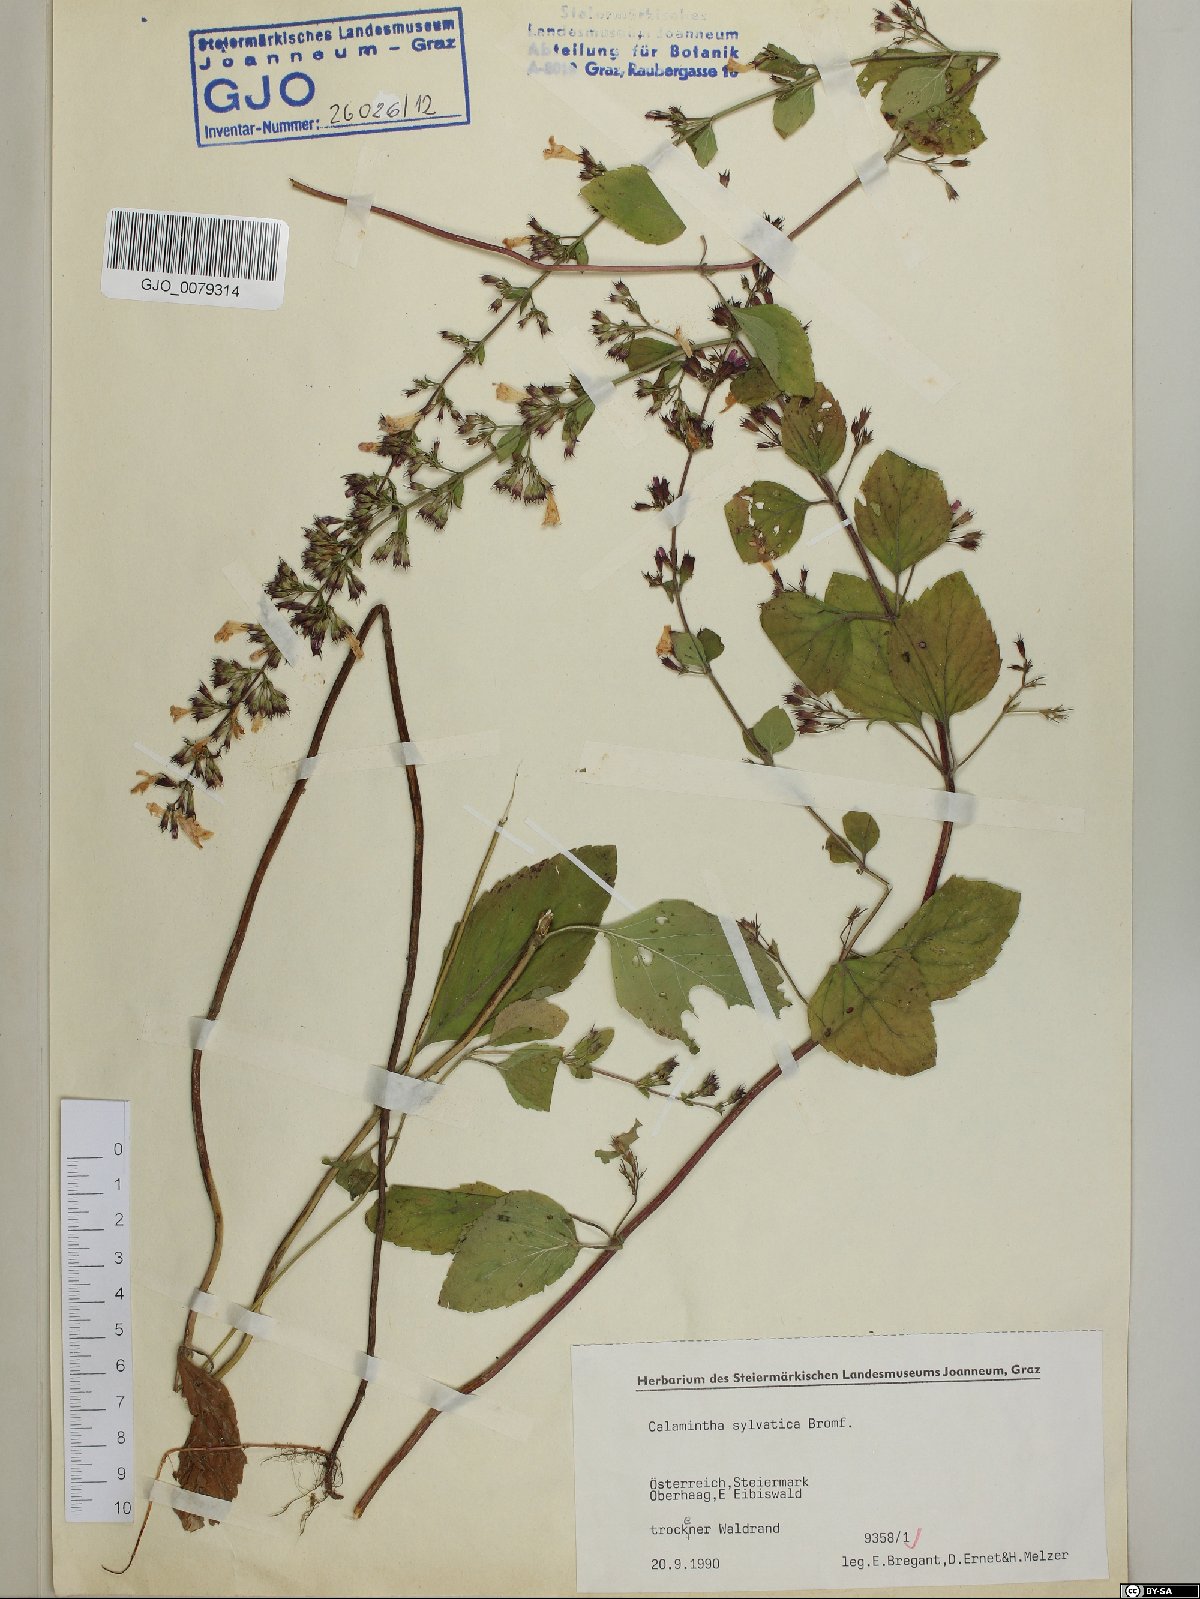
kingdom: Plantae
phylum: Tracheophyta
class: Magnoliopsida
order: Lamiales
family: Lamiaceae
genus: Clinopodium
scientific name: Clinopodium menthifolium
